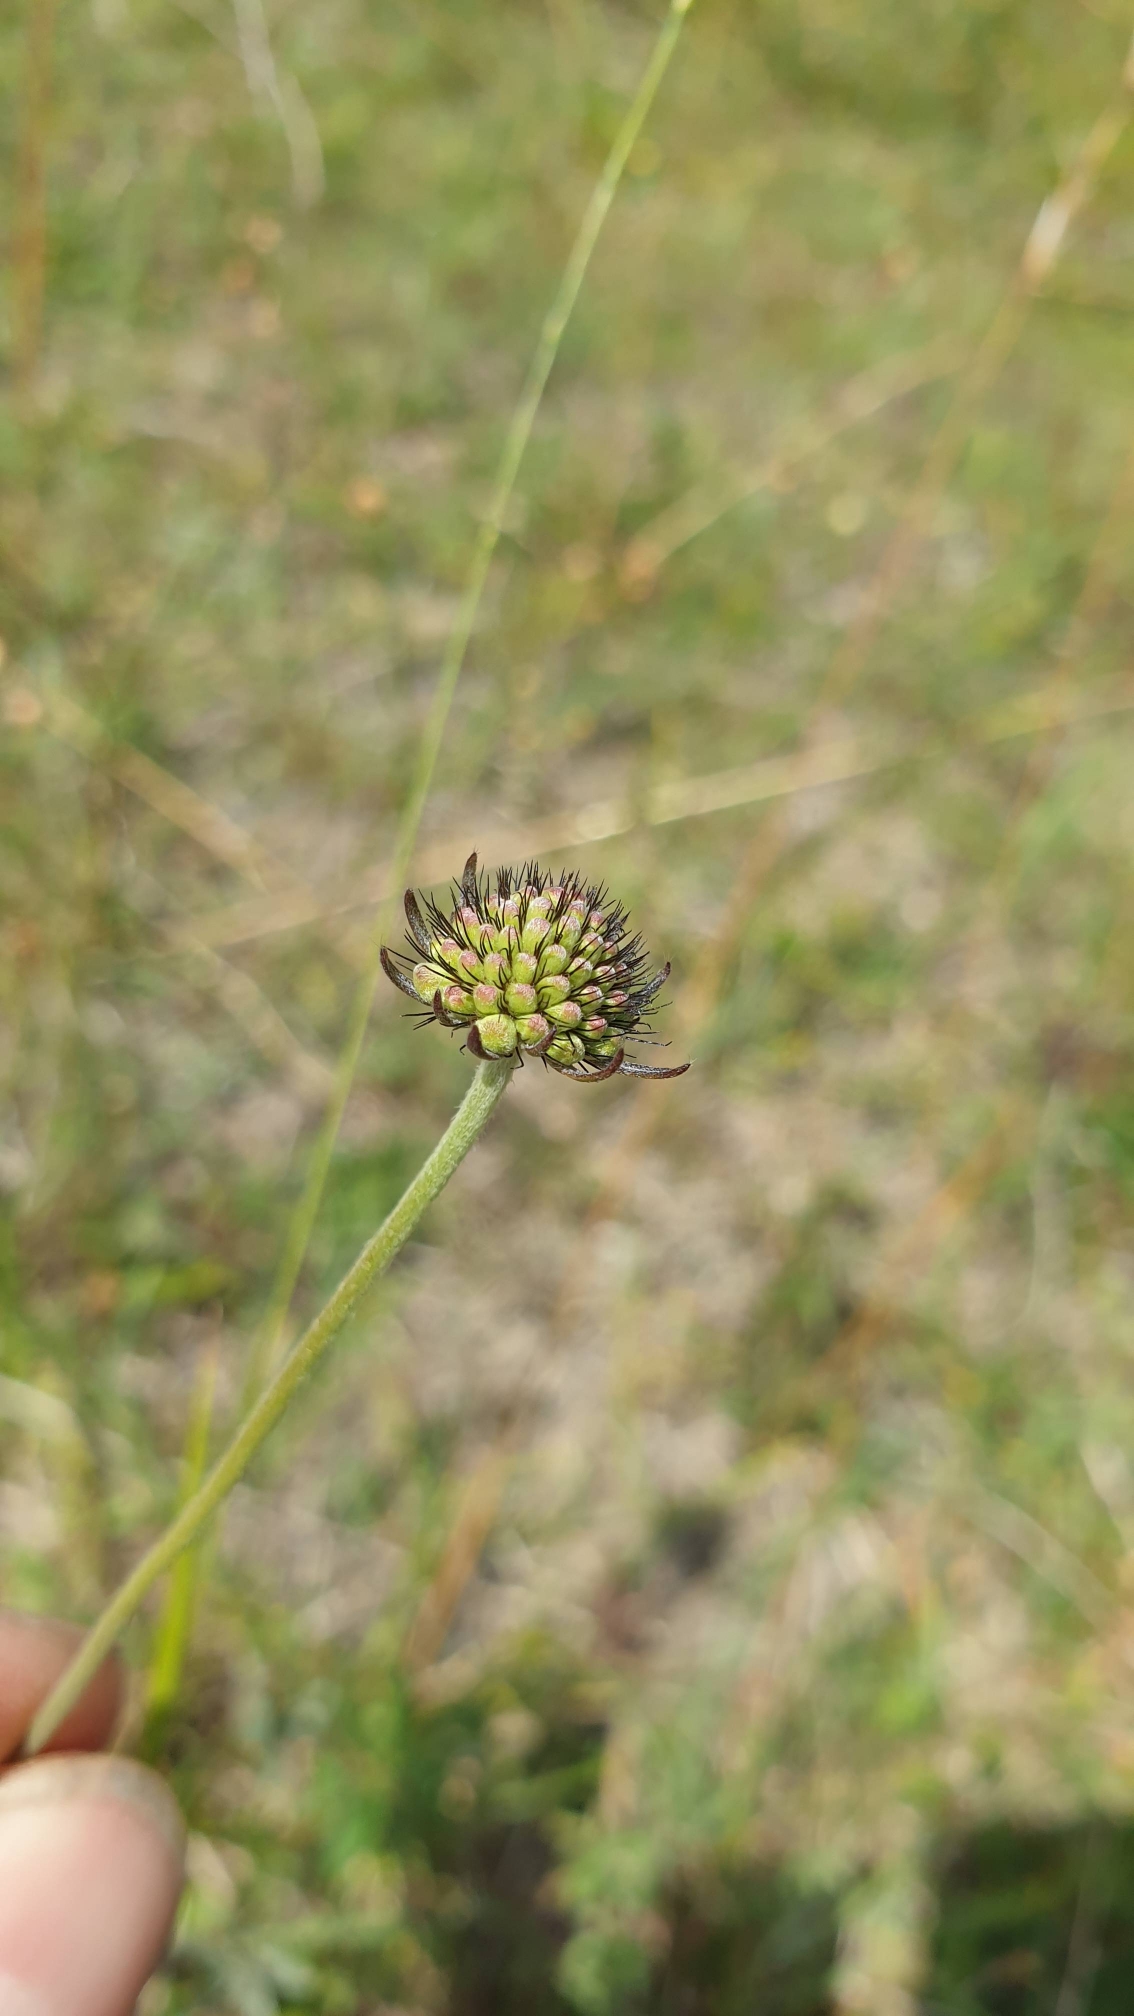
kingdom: Plantae
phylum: Tracheophyta
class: Magnoliopsida
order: Dipsacales
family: Caprifoliaceae
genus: Scabiosa
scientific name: Scabiosa columbaria
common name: Due-skabiose
